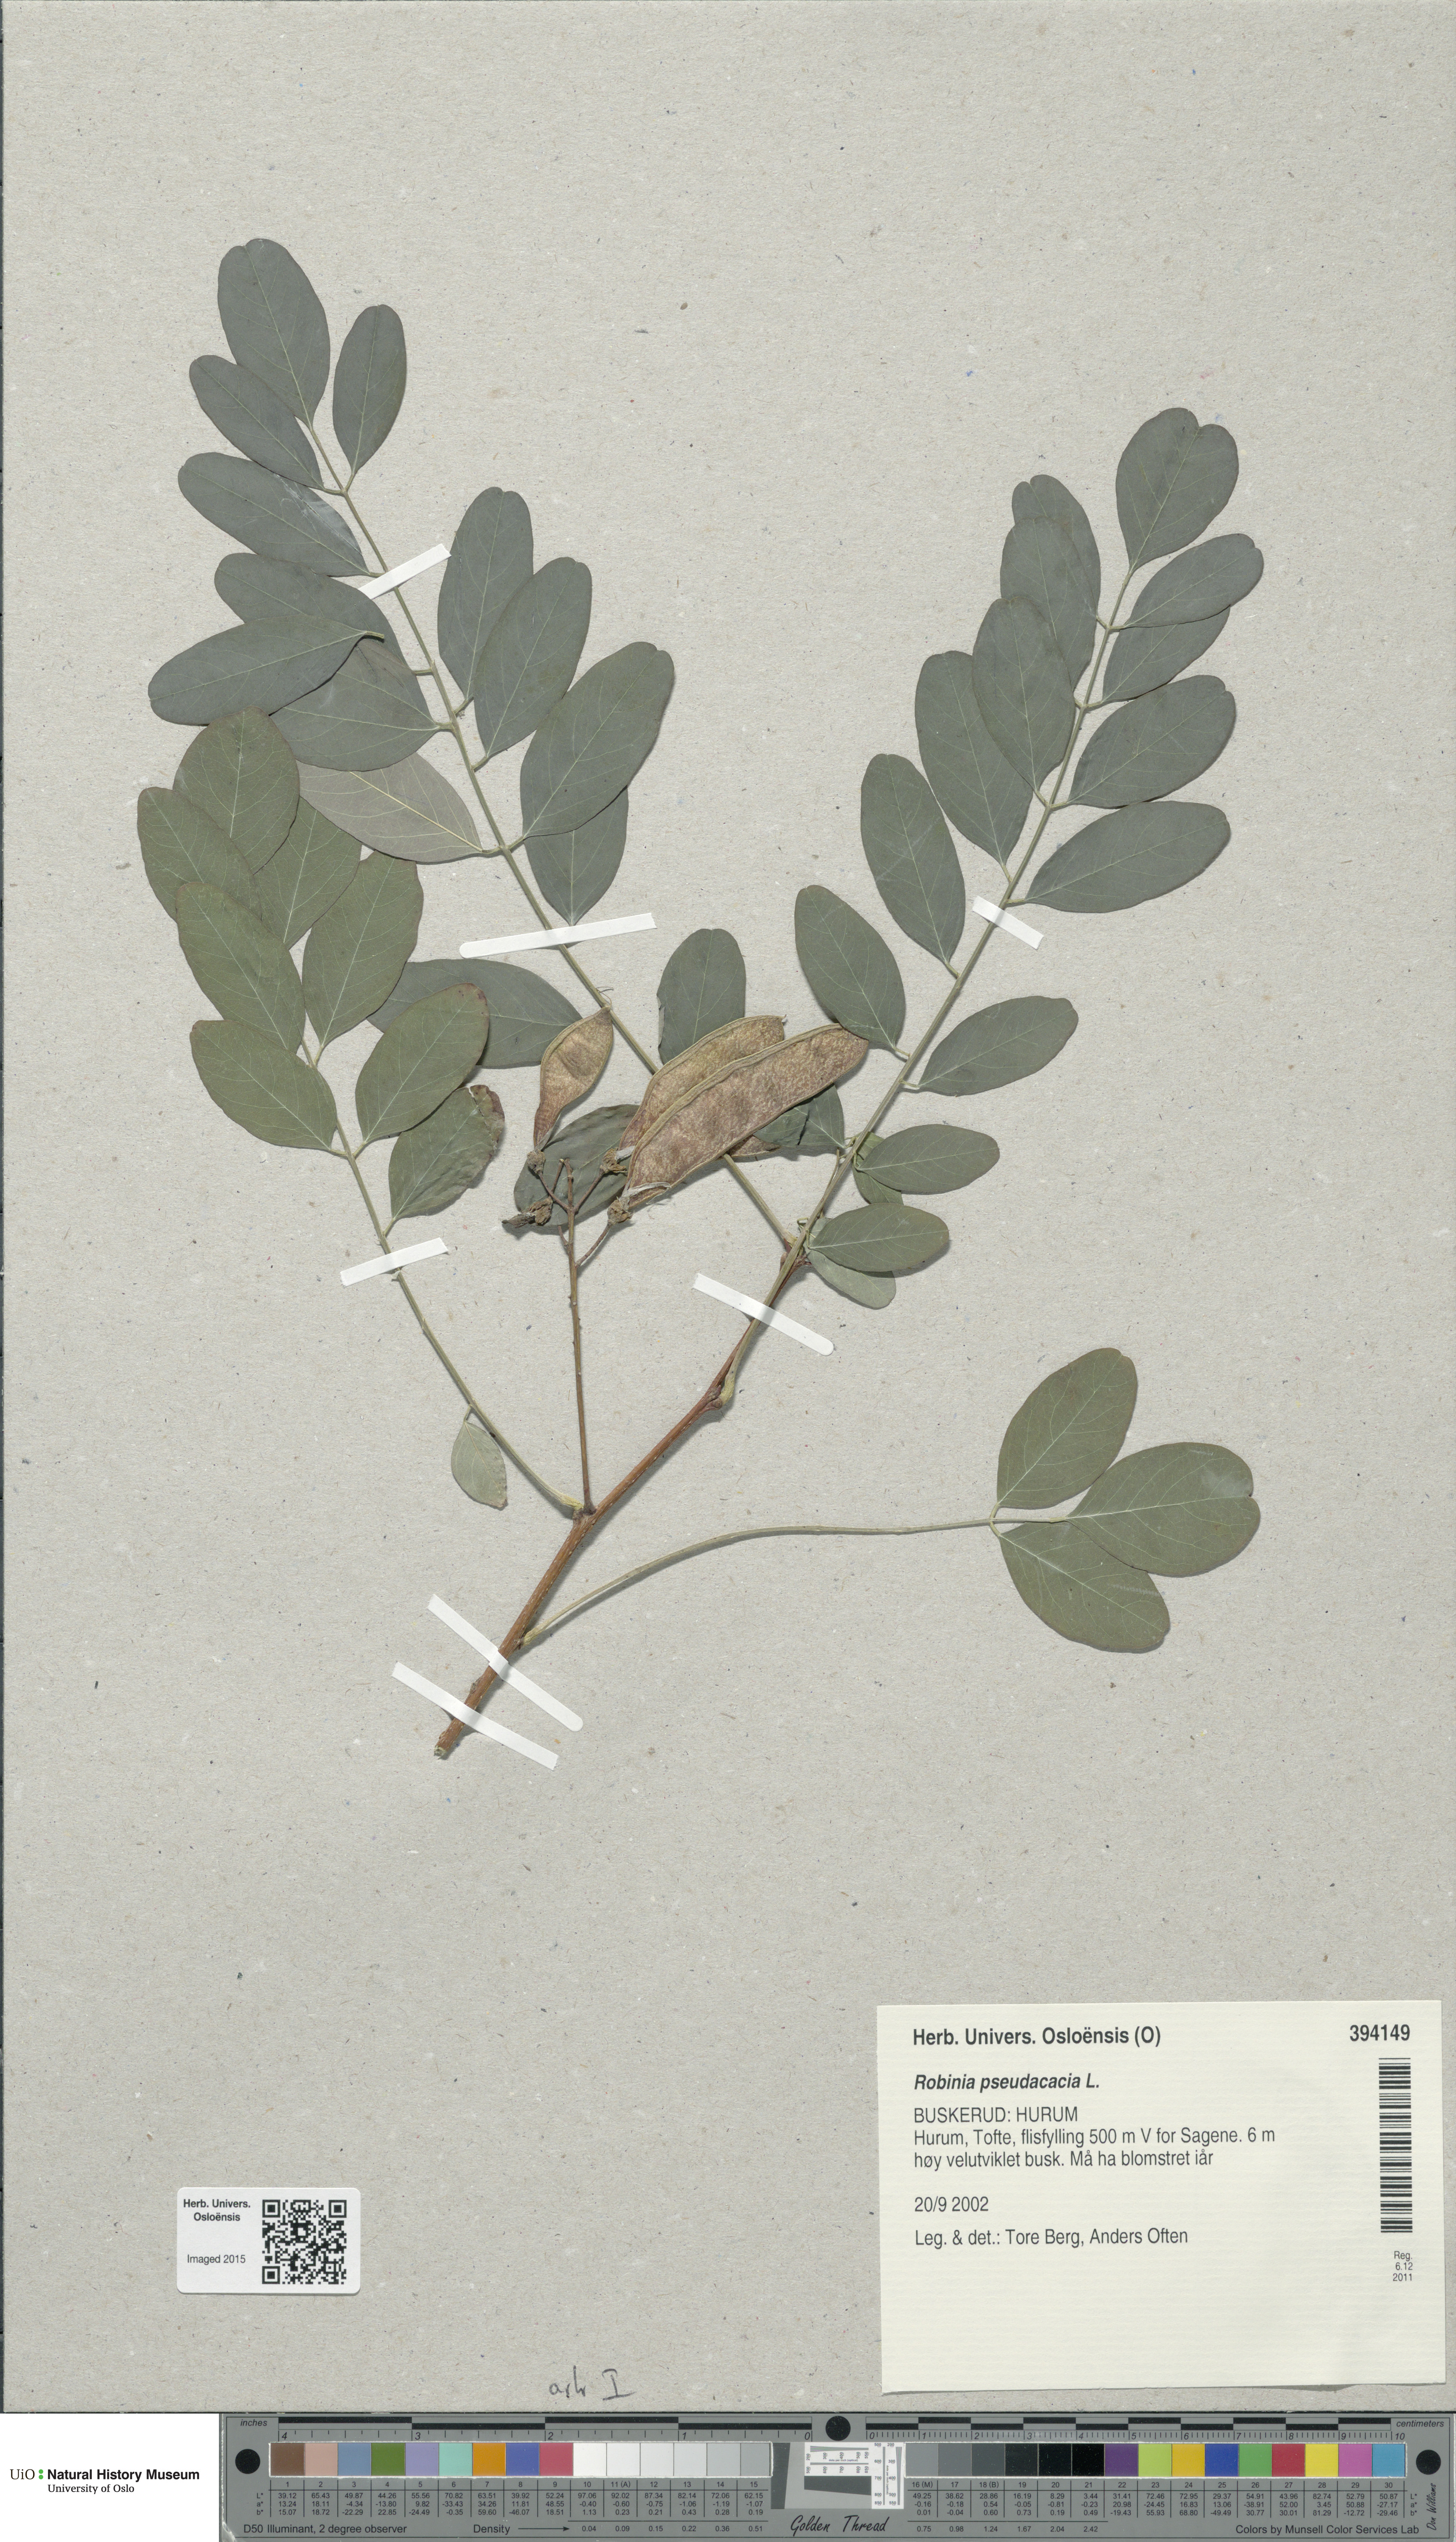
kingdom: Plantae
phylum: Tracheophyta
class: Magnoliopsida
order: Fabales
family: Fabaceae
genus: Robinia
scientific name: Robinia pseudoacacia
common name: Black locust
